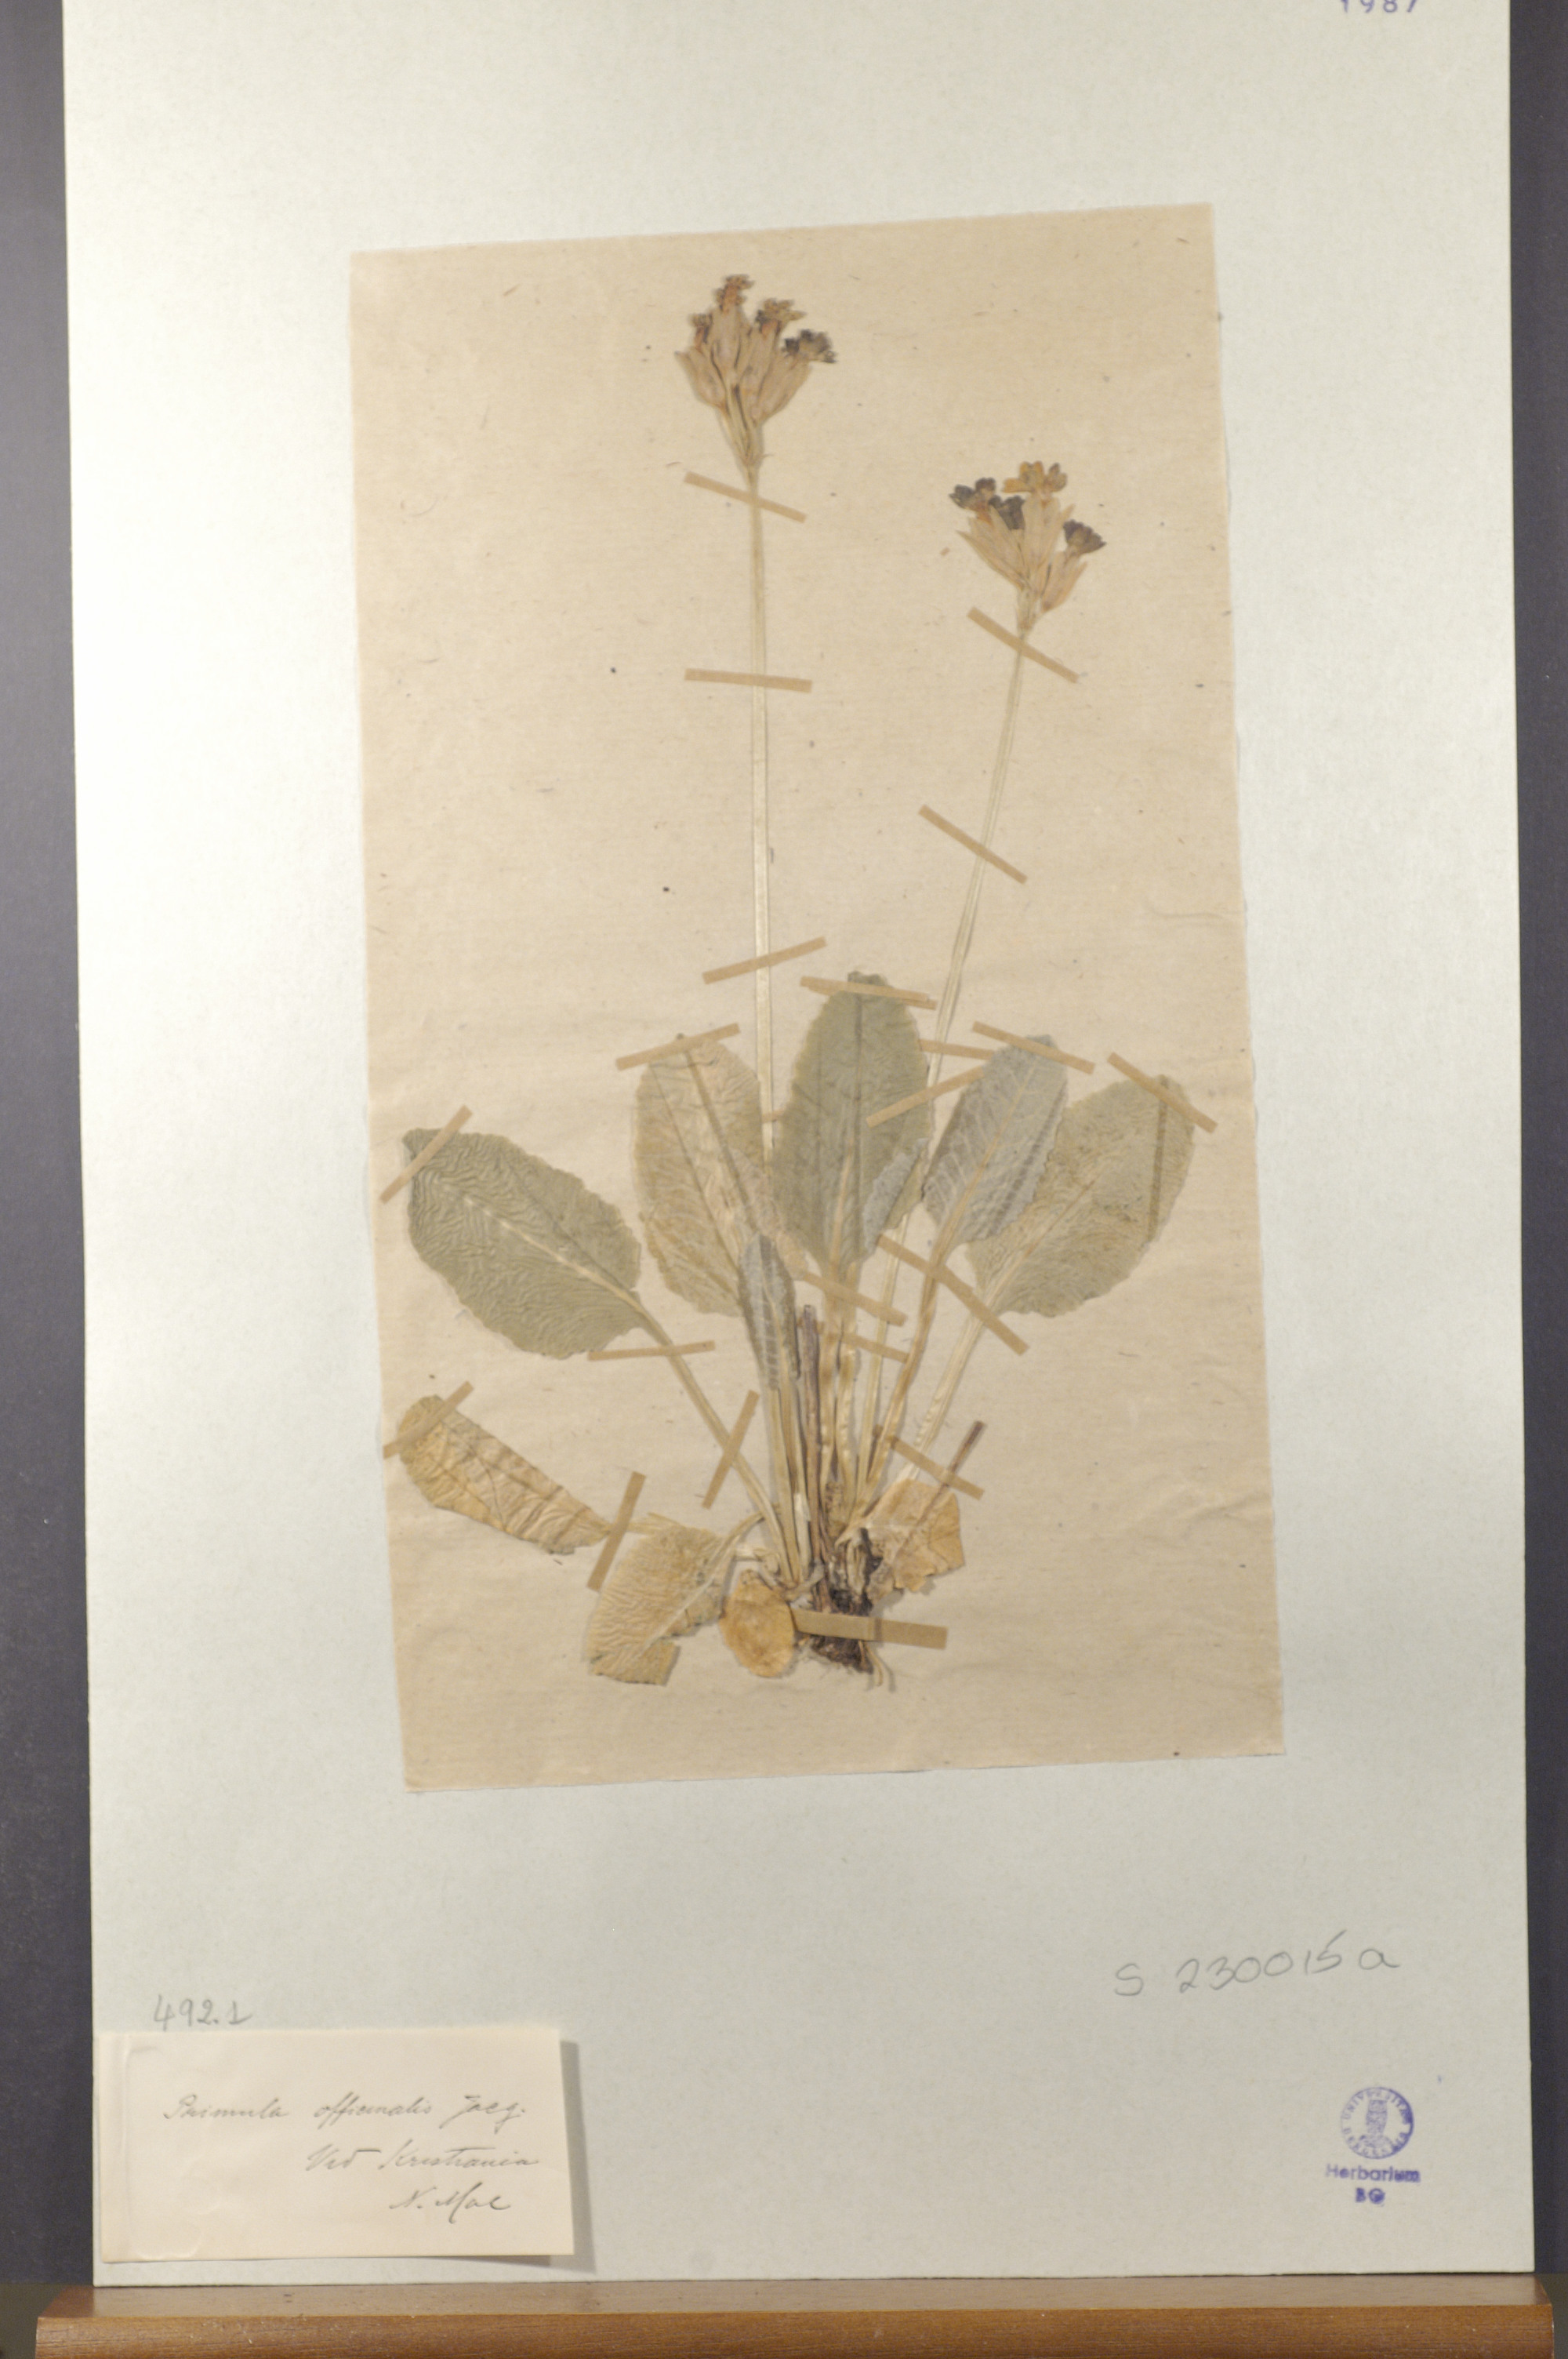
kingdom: Plantae
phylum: Tracheophyta
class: Magnoliopsida
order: Ericales
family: Primulaceae
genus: Primula
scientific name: Primula veris
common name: Cowslip
